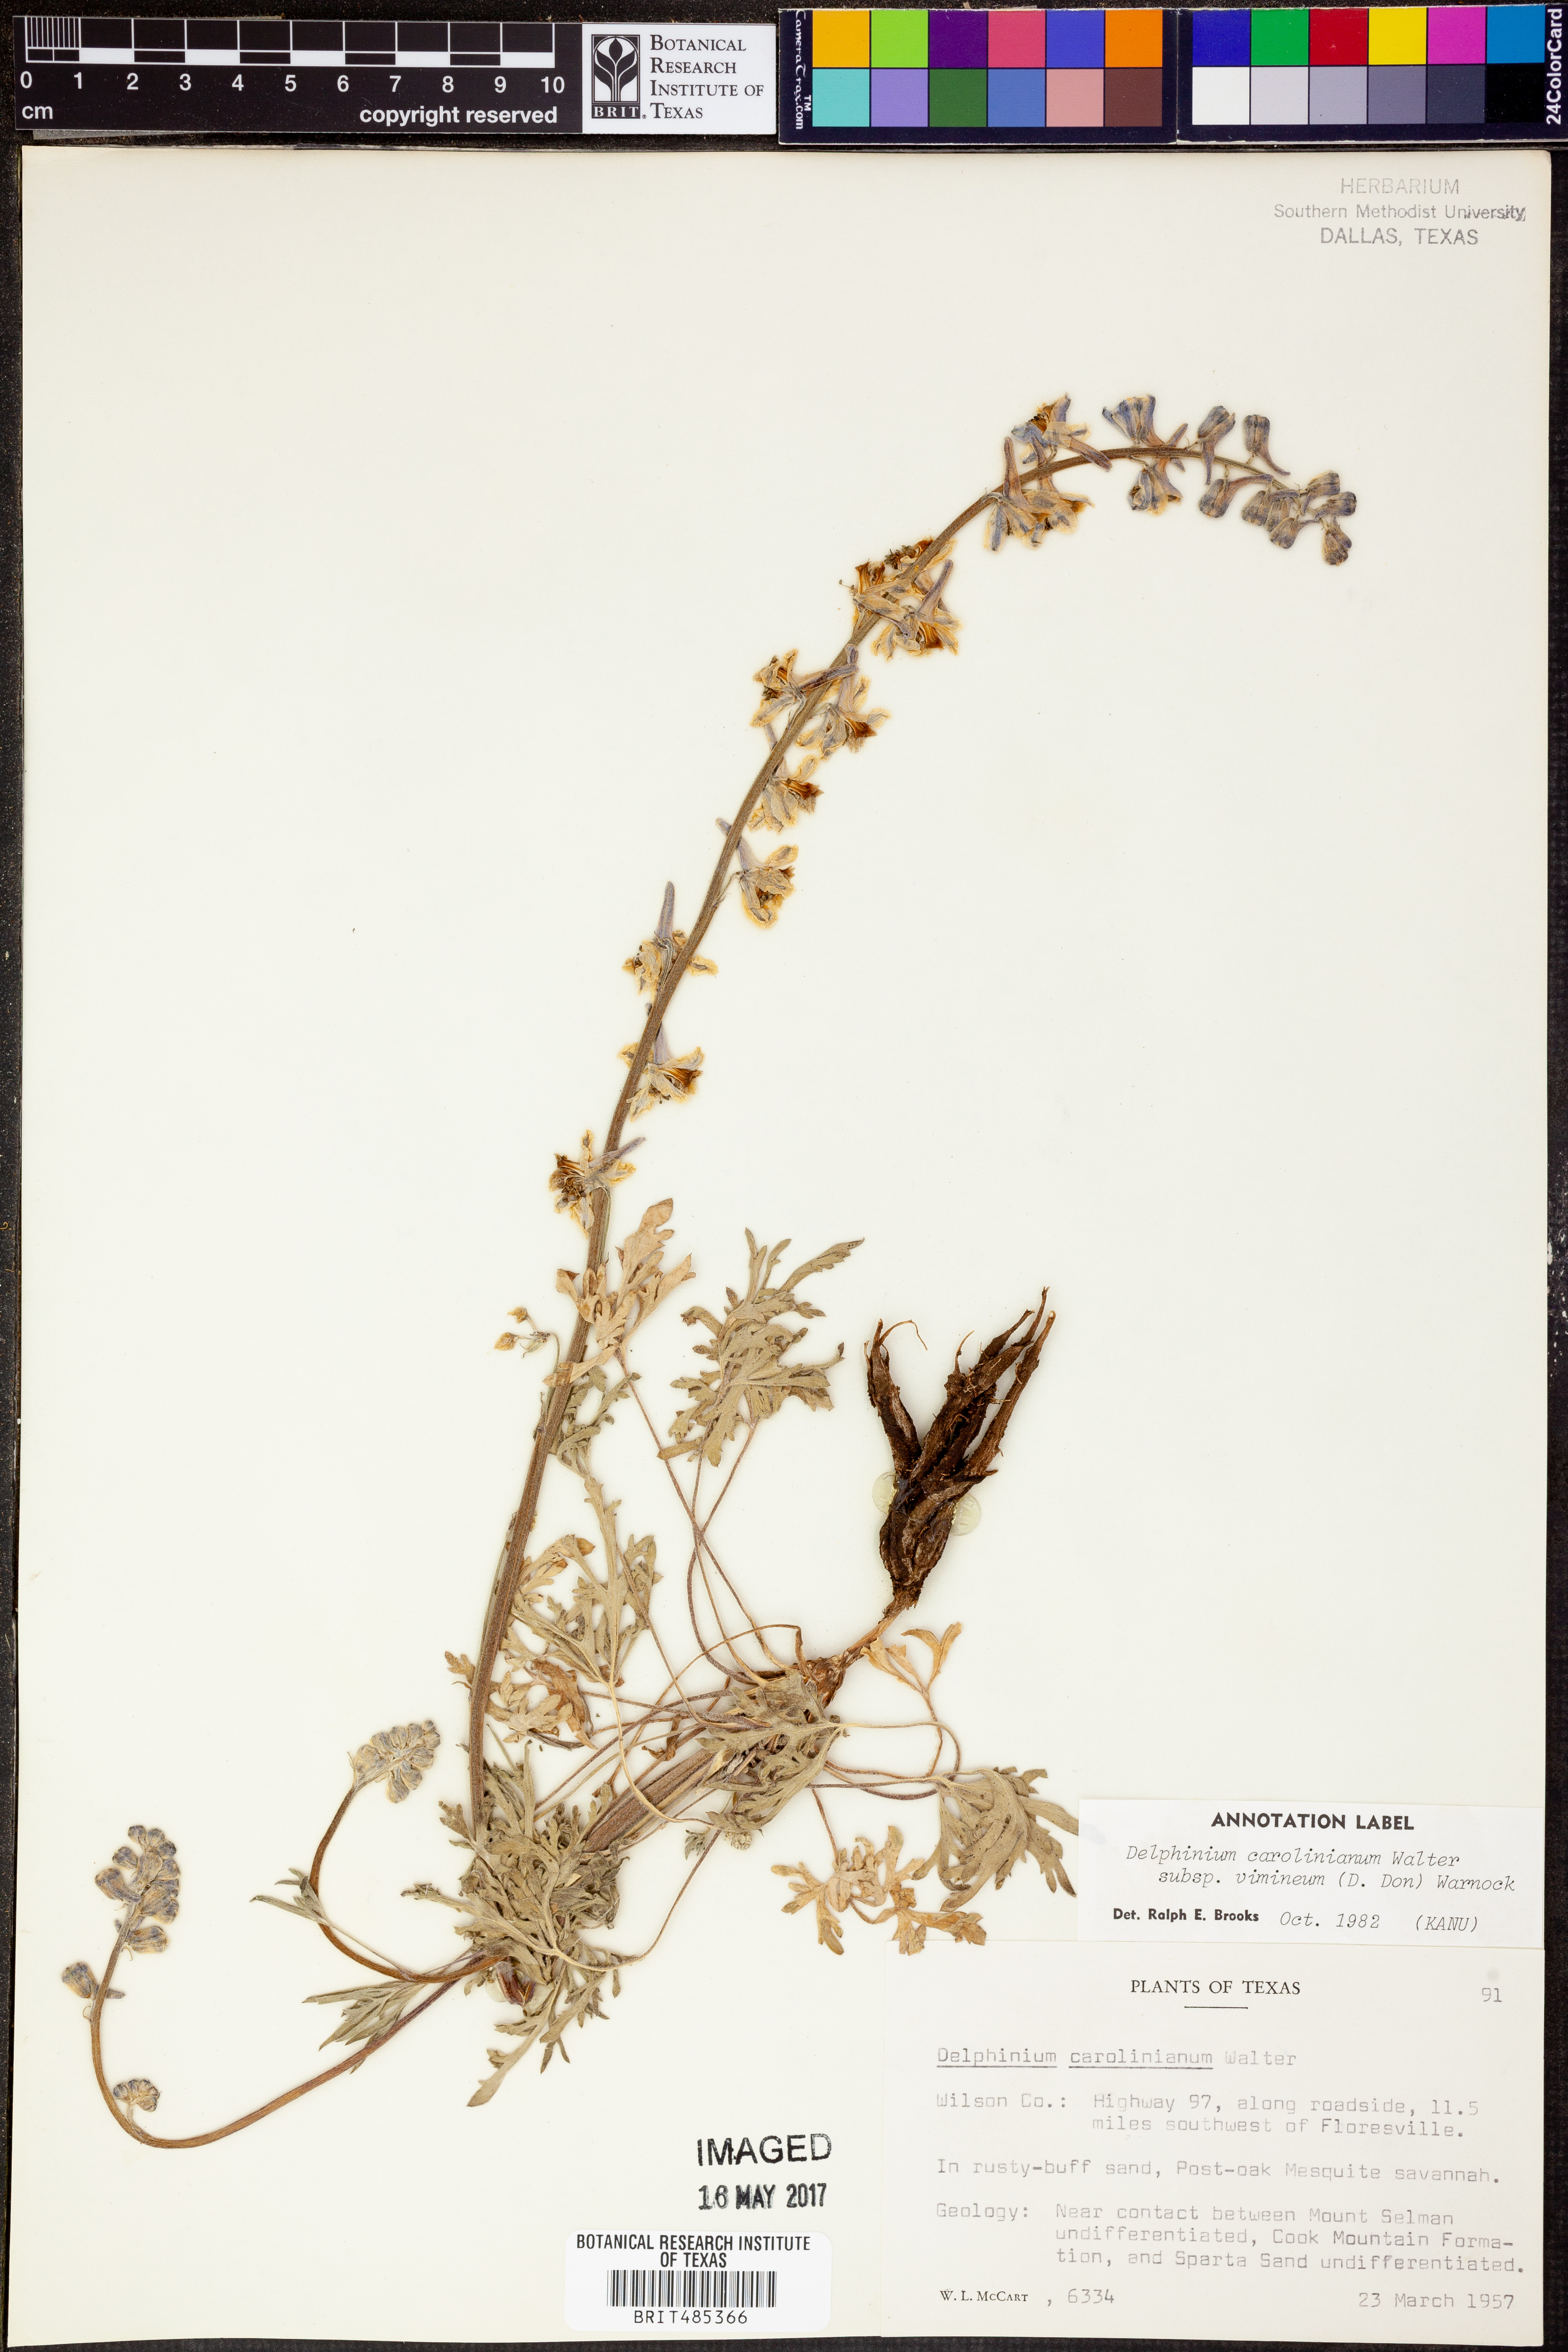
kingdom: Plantae
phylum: Tracheophyta
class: Magnoliopsida
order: Ranunculales
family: Ranunculaceae
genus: Delphinium
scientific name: Delphinium carolinianum
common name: Carolina larkspur
